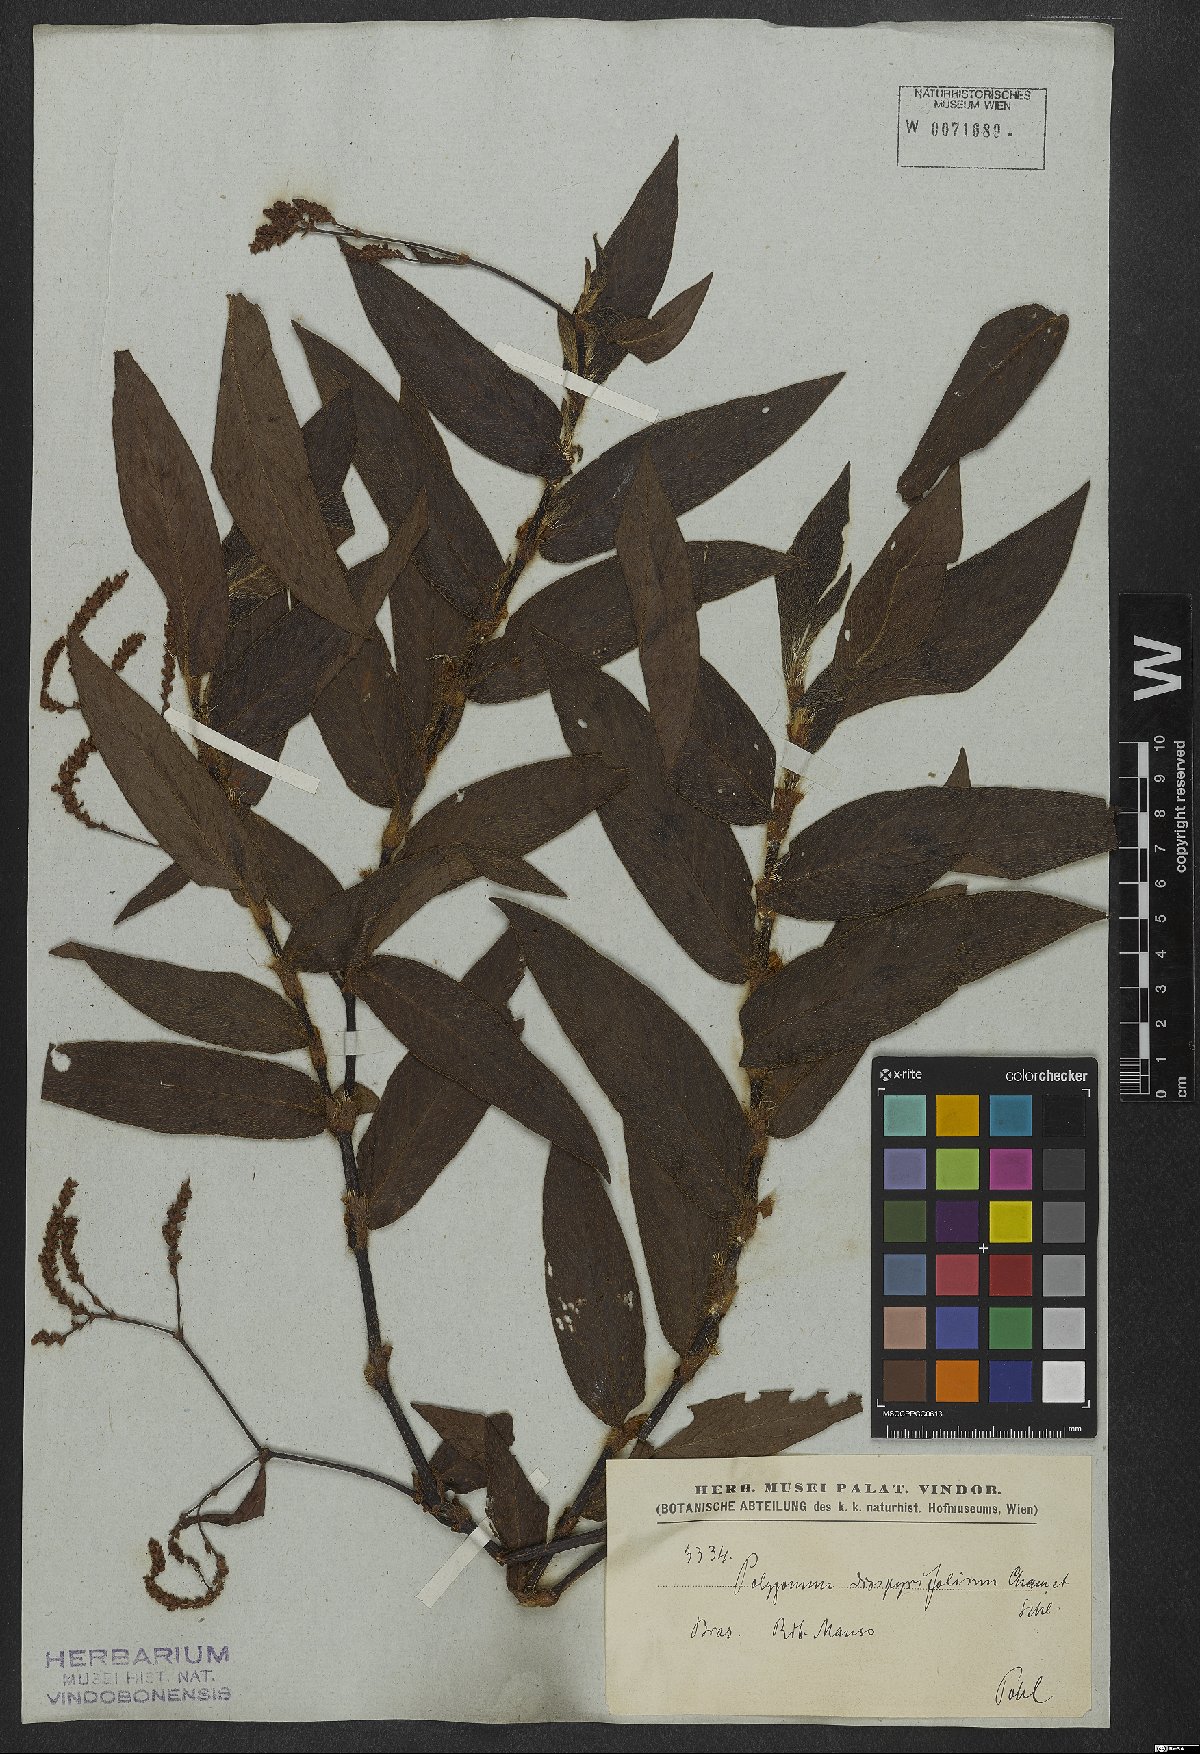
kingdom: Plantae
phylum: Tracheophyta
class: Magnoliopsida
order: Caryophyllales
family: Polygonaceae
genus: Persicaria
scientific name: Persicaria diospyrifolia
